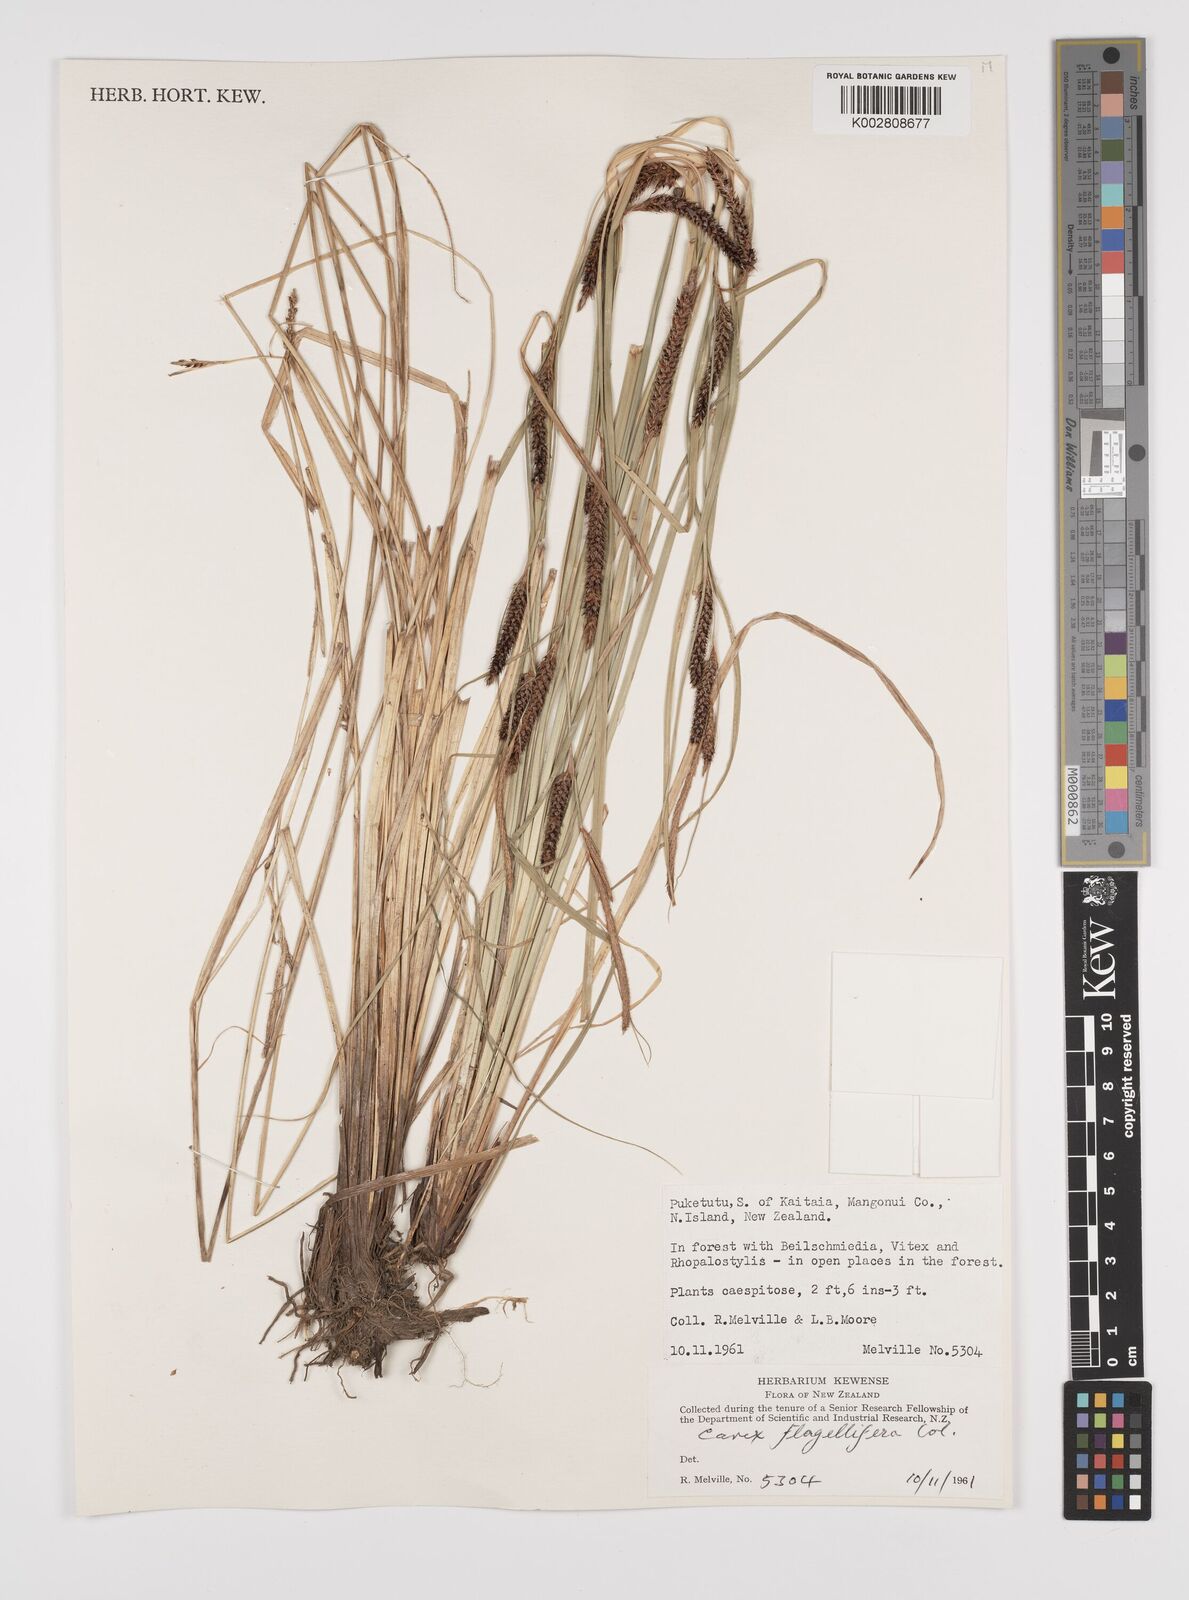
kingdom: Plantae
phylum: Tracheophyta
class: Liliopsida
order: Poales
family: Cyperaceae
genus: Carex
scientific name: Carex flagellifera
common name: Glen murray tussock
